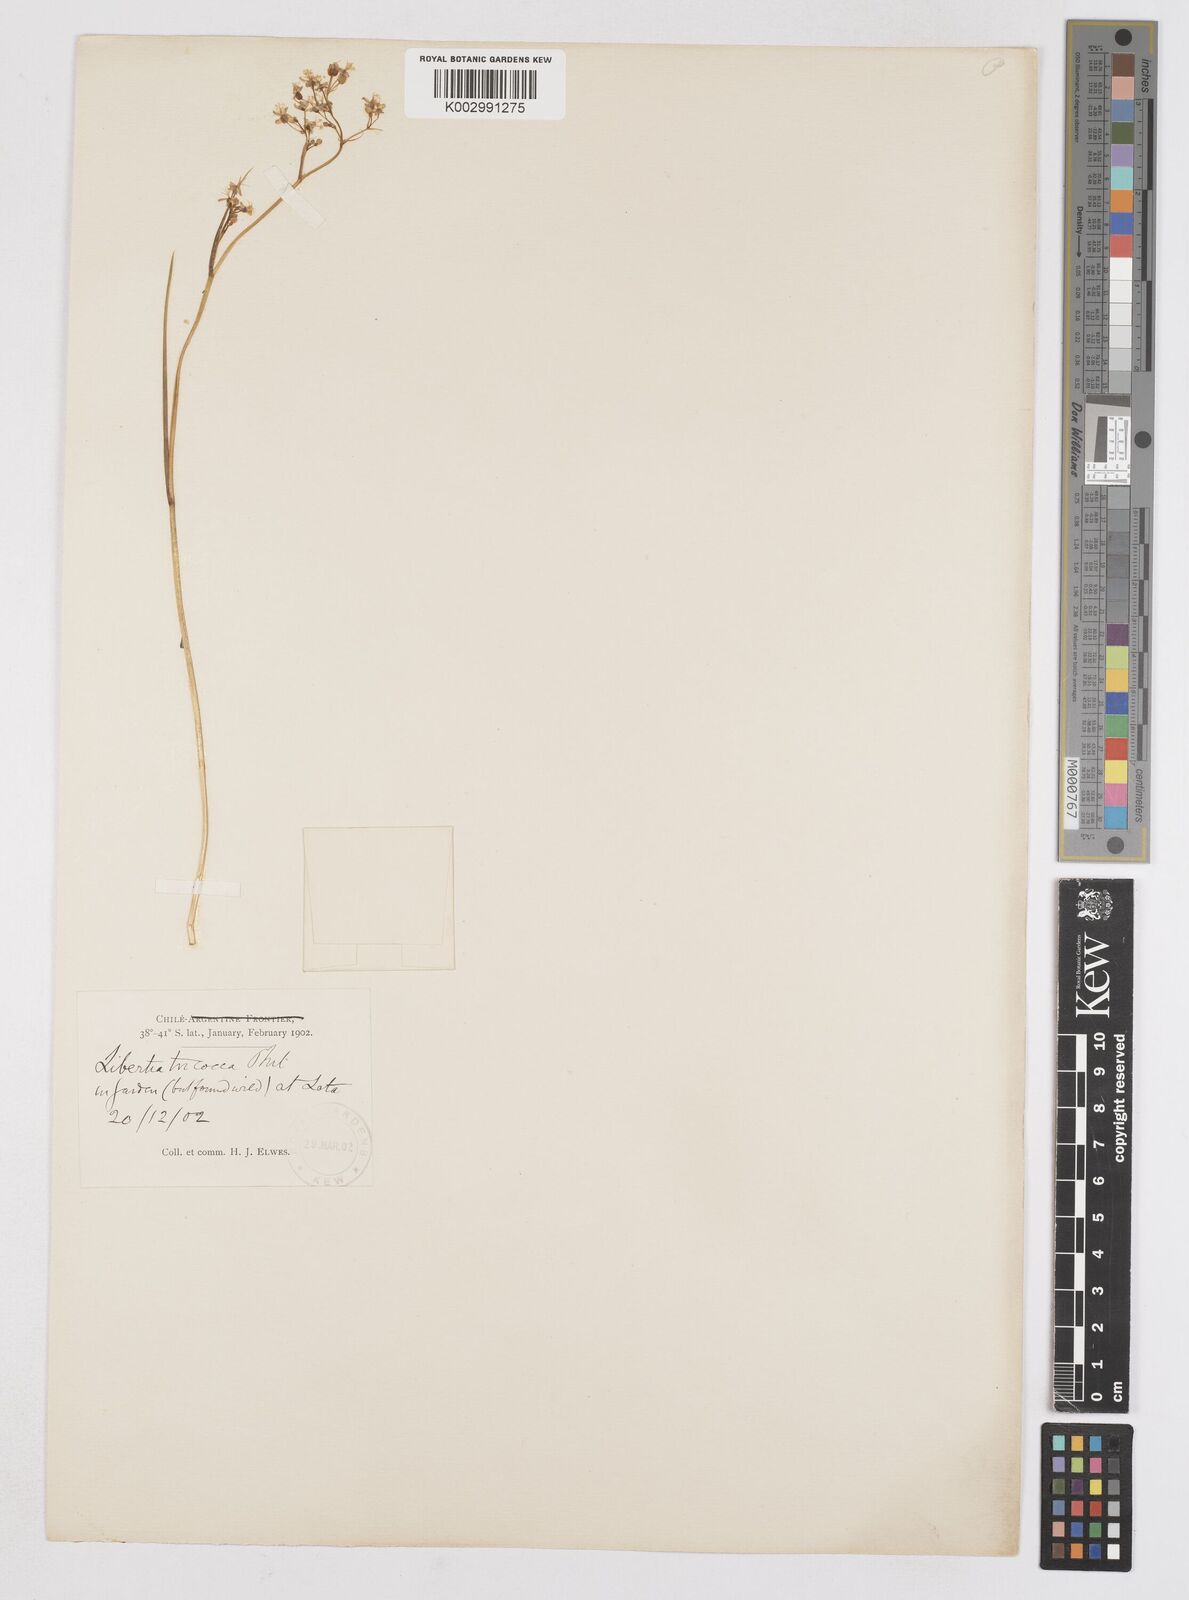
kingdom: Plantae
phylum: Tracheophyta
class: Liliopsida
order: Asparagales
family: Iridaceae
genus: Libertia
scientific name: Libertia tricocca
